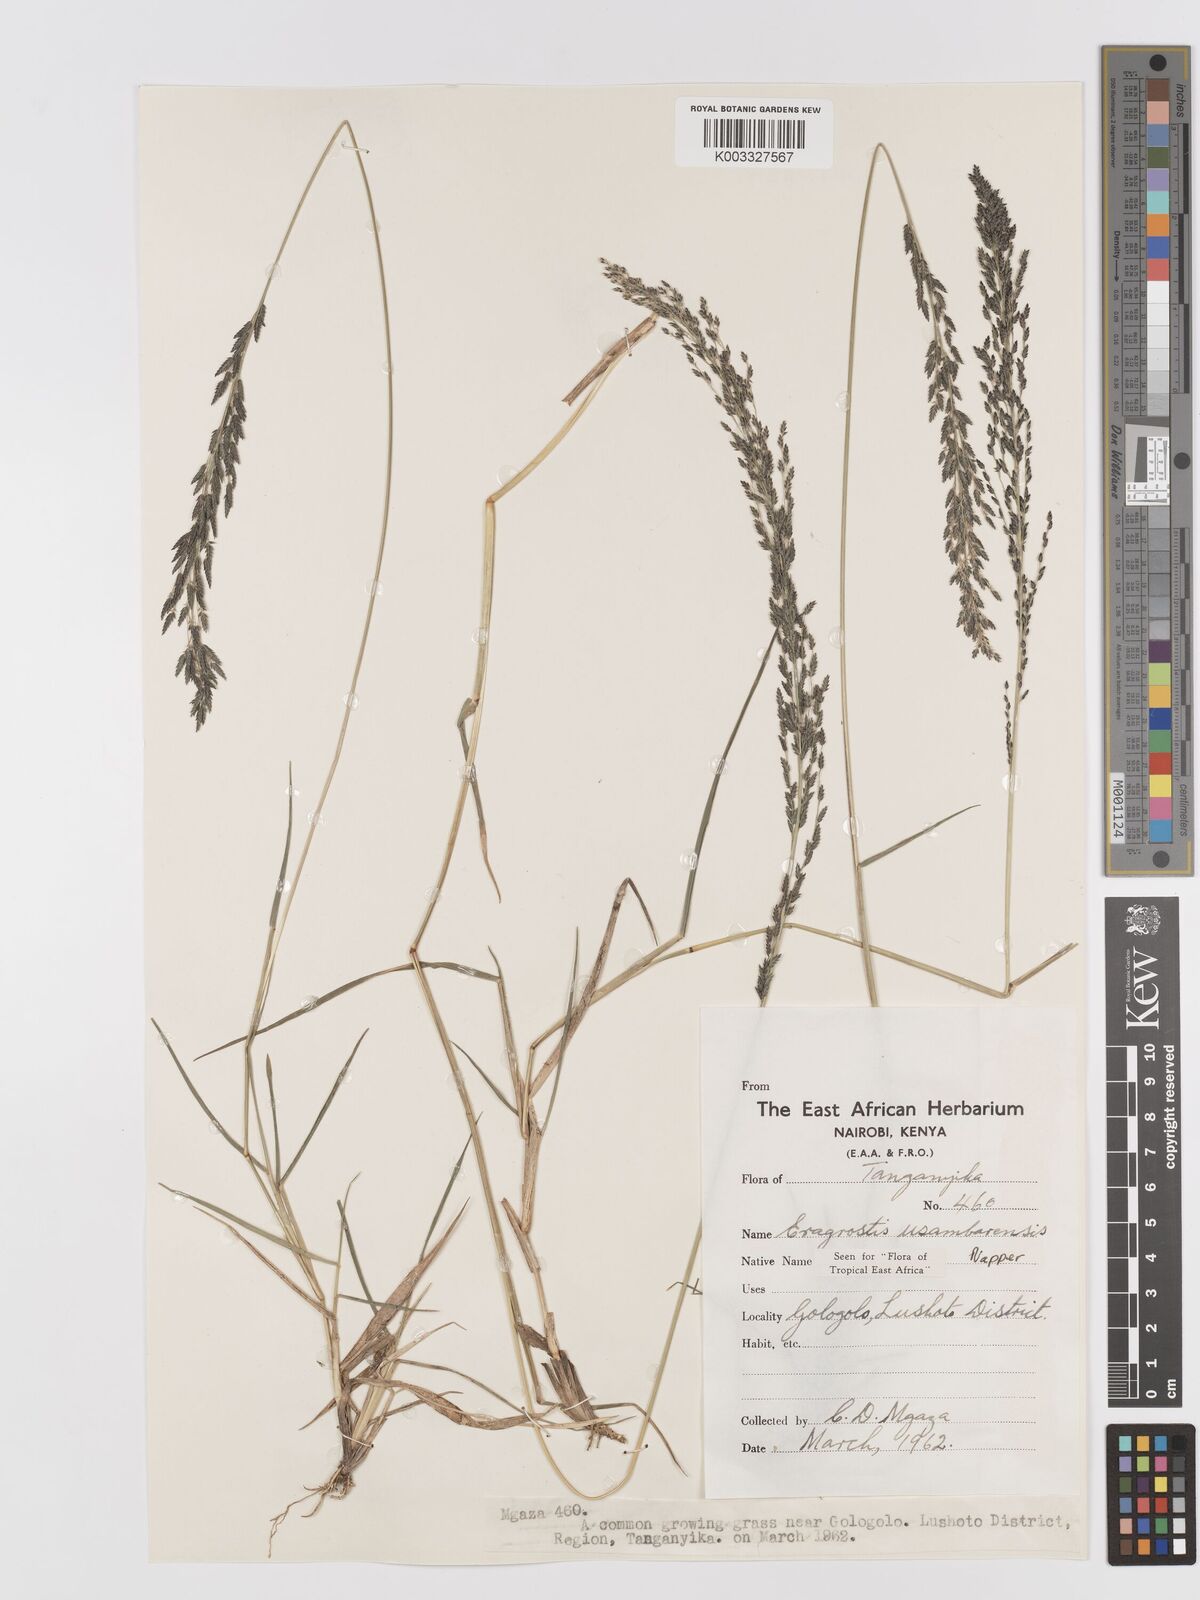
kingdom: Plantae
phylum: Tracheophyta
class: Liliopsida
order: Poales
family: Poaceae
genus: Eragrostis
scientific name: Eragrostis usambarensis
